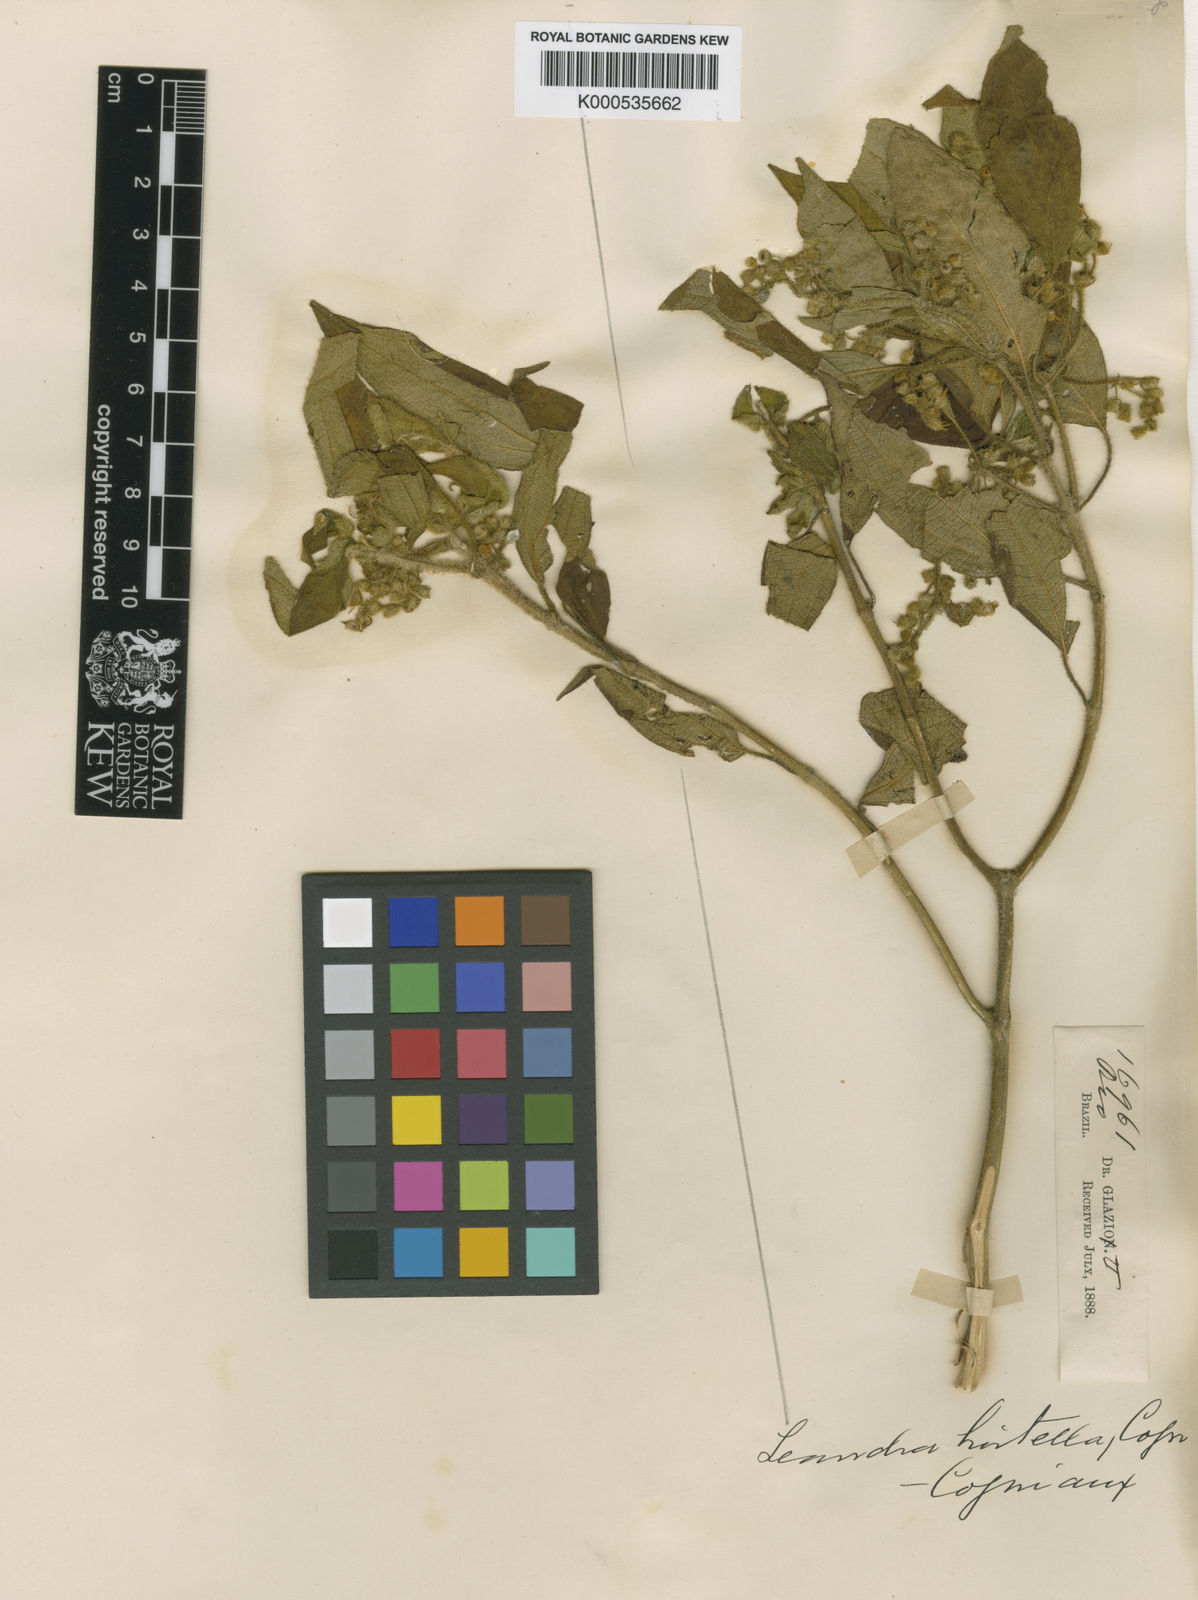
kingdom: Plantae
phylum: Tracheophyta
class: Magnoliopsida
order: Myrtales
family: Melastomataceae
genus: Miconia
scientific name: Miconia leahirtella
